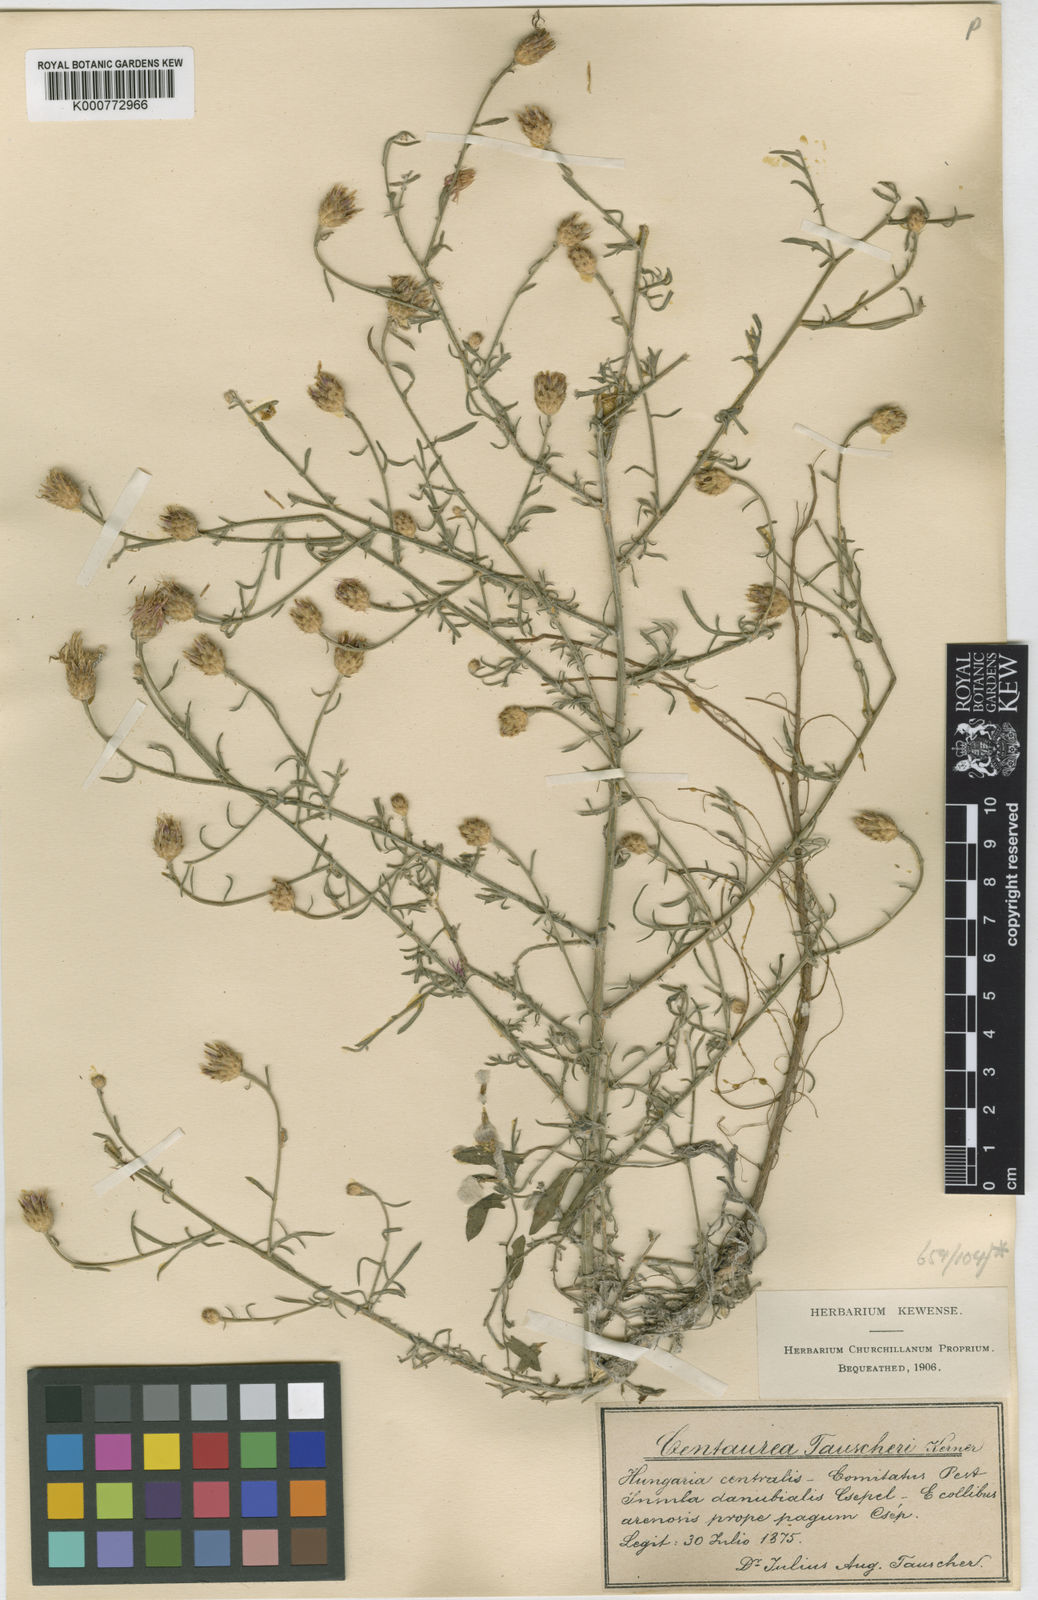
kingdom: Plantae
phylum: Tracheophyta
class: Magnoliopsida
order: Asterales
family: Asteraceae
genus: Centaurea
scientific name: Centaurea tauscheri
